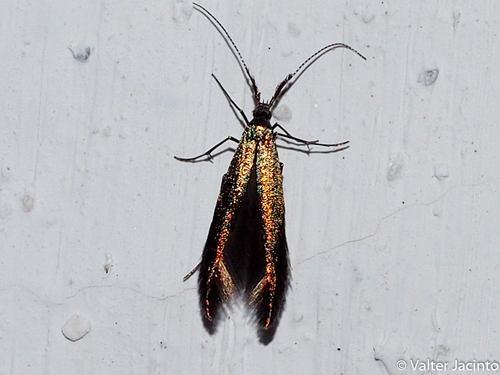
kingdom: Animalia
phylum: Arthropoda
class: Insecta
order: Lepidoptera
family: Coleophoridae
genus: Coleophora
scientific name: Coleophora
